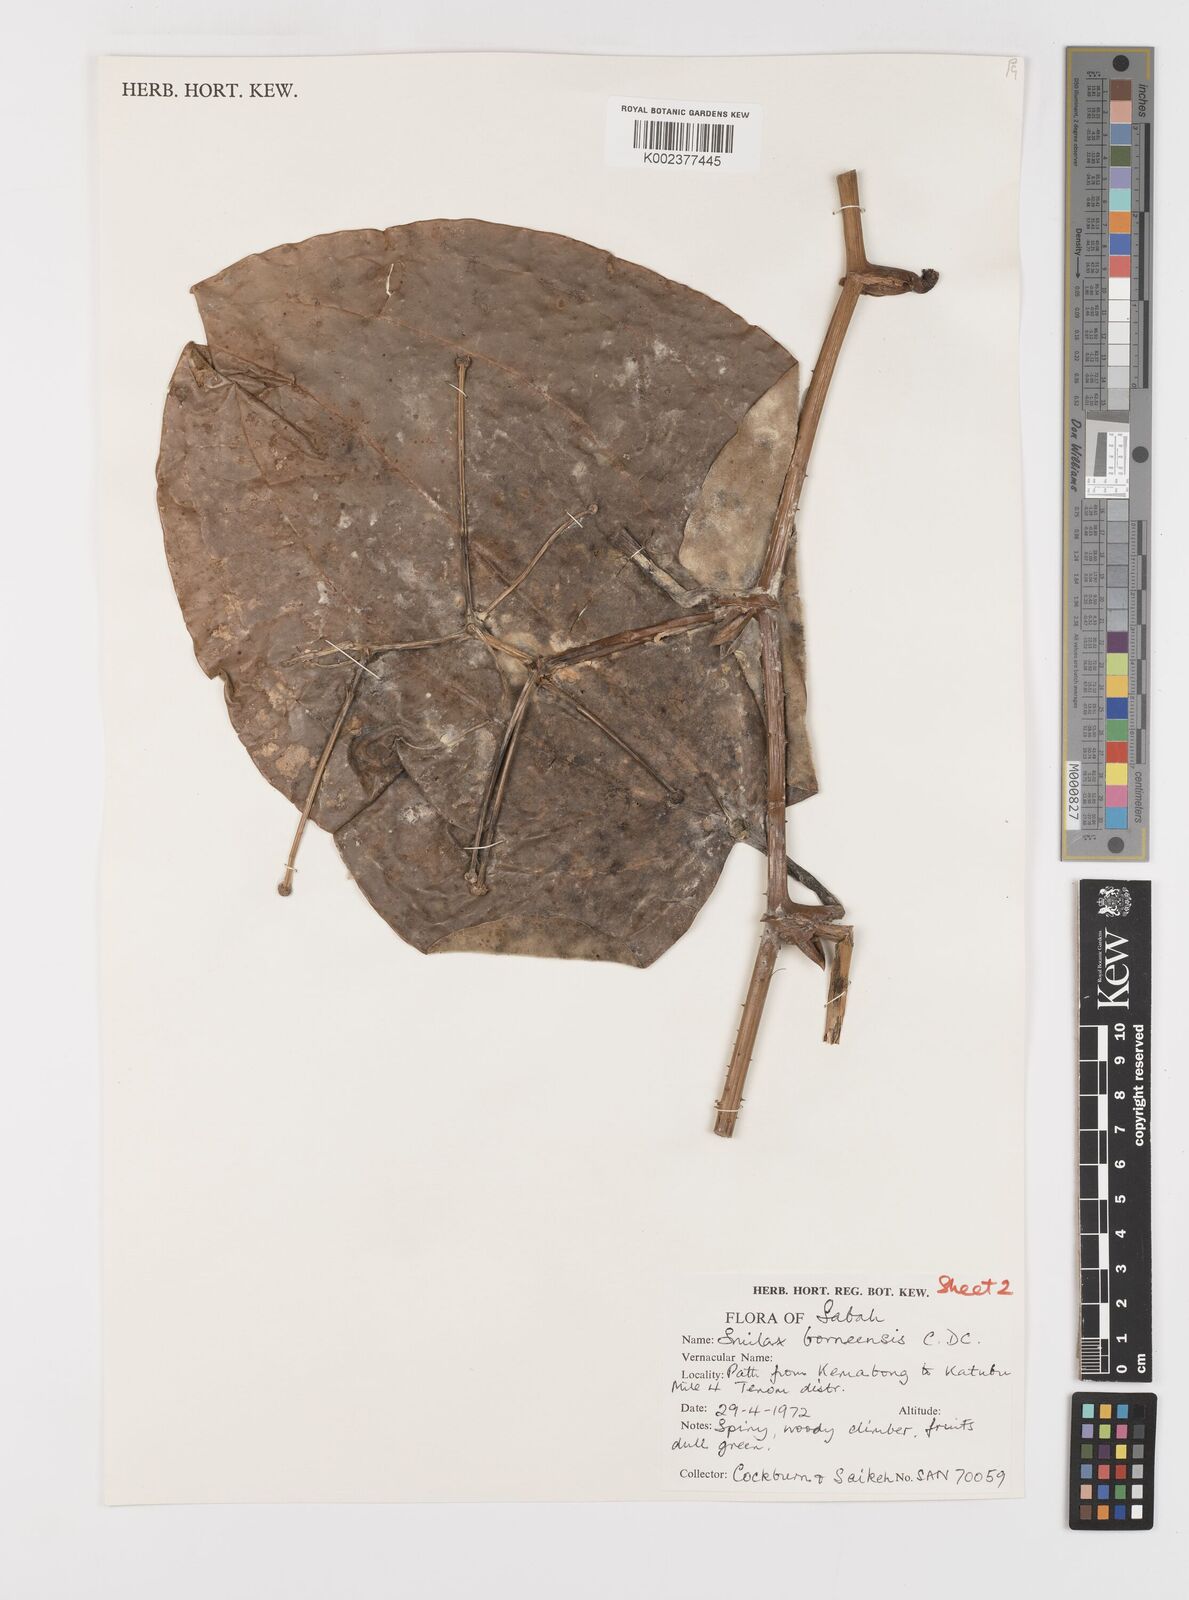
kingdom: Plantae
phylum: Tracheophyta
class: Liliopsida
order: Liliales
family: Smilacaceae
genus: Smilax
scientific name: Smilax borneensis
